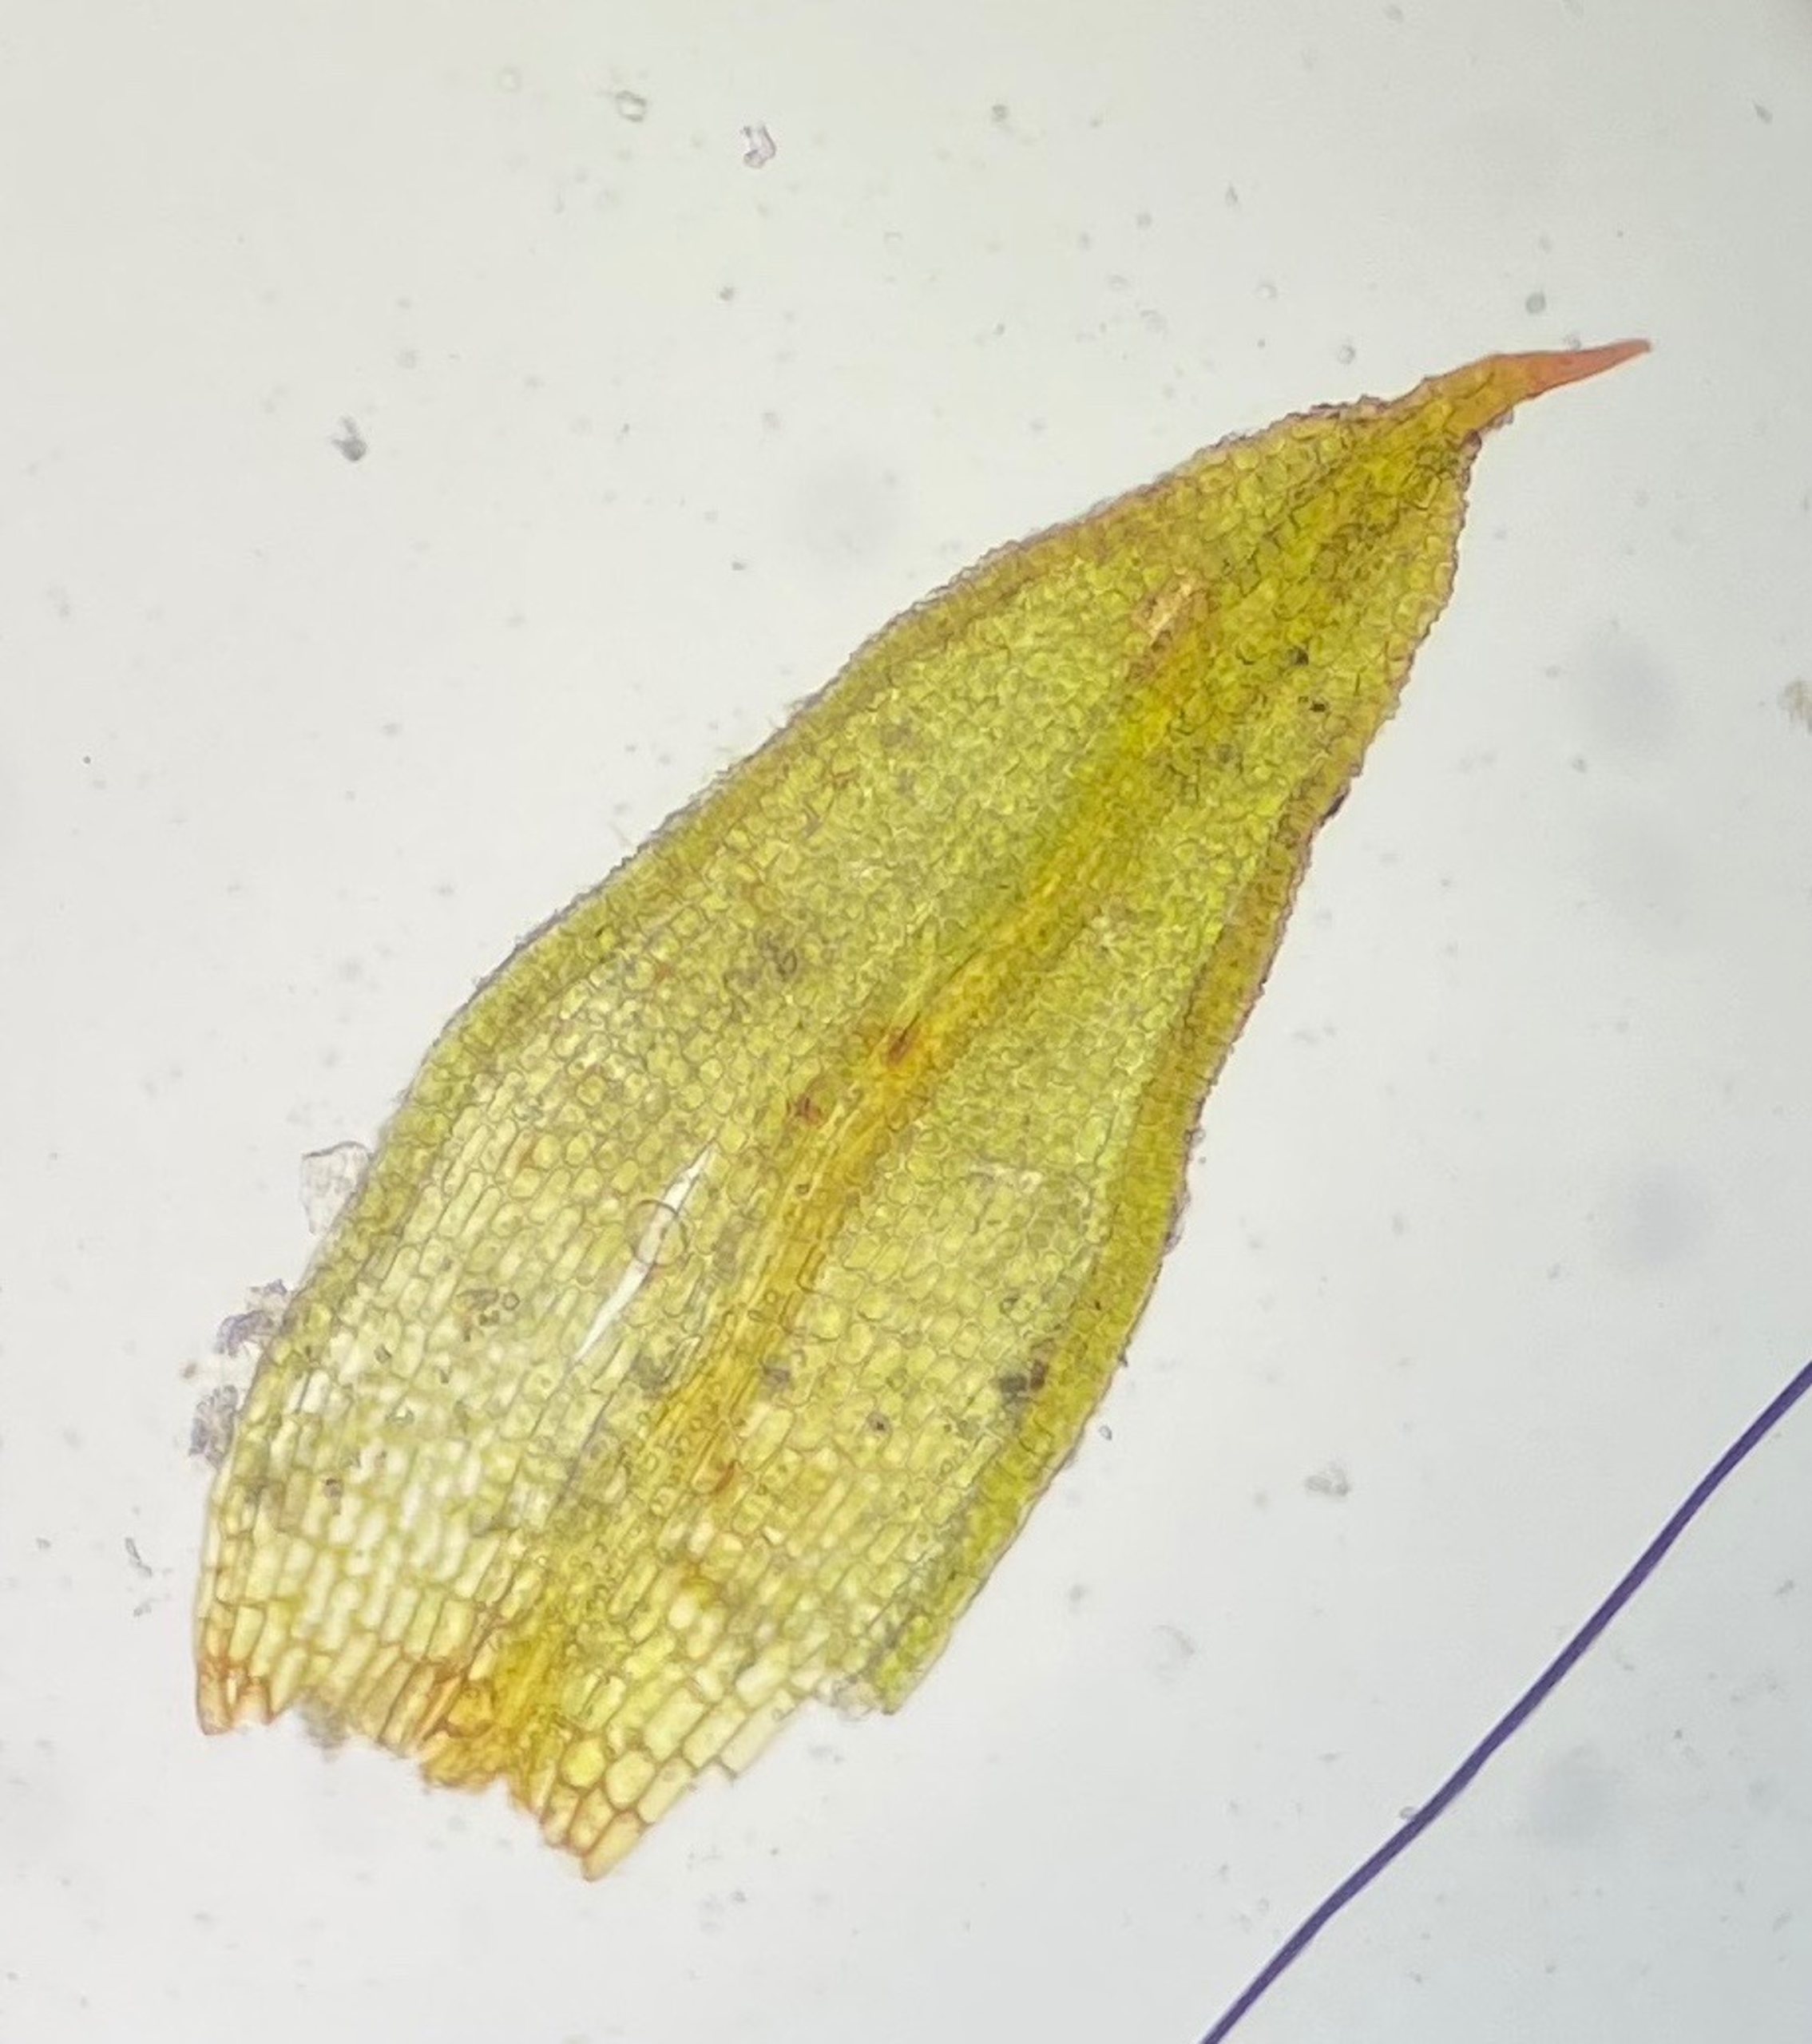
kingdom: Plantae
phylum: Bryophyta
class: Bryopsida
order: Pottiales
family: Pottiaceae
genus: Microbryum
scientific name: Microbryum curvicollum
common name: Bøjet småmos
